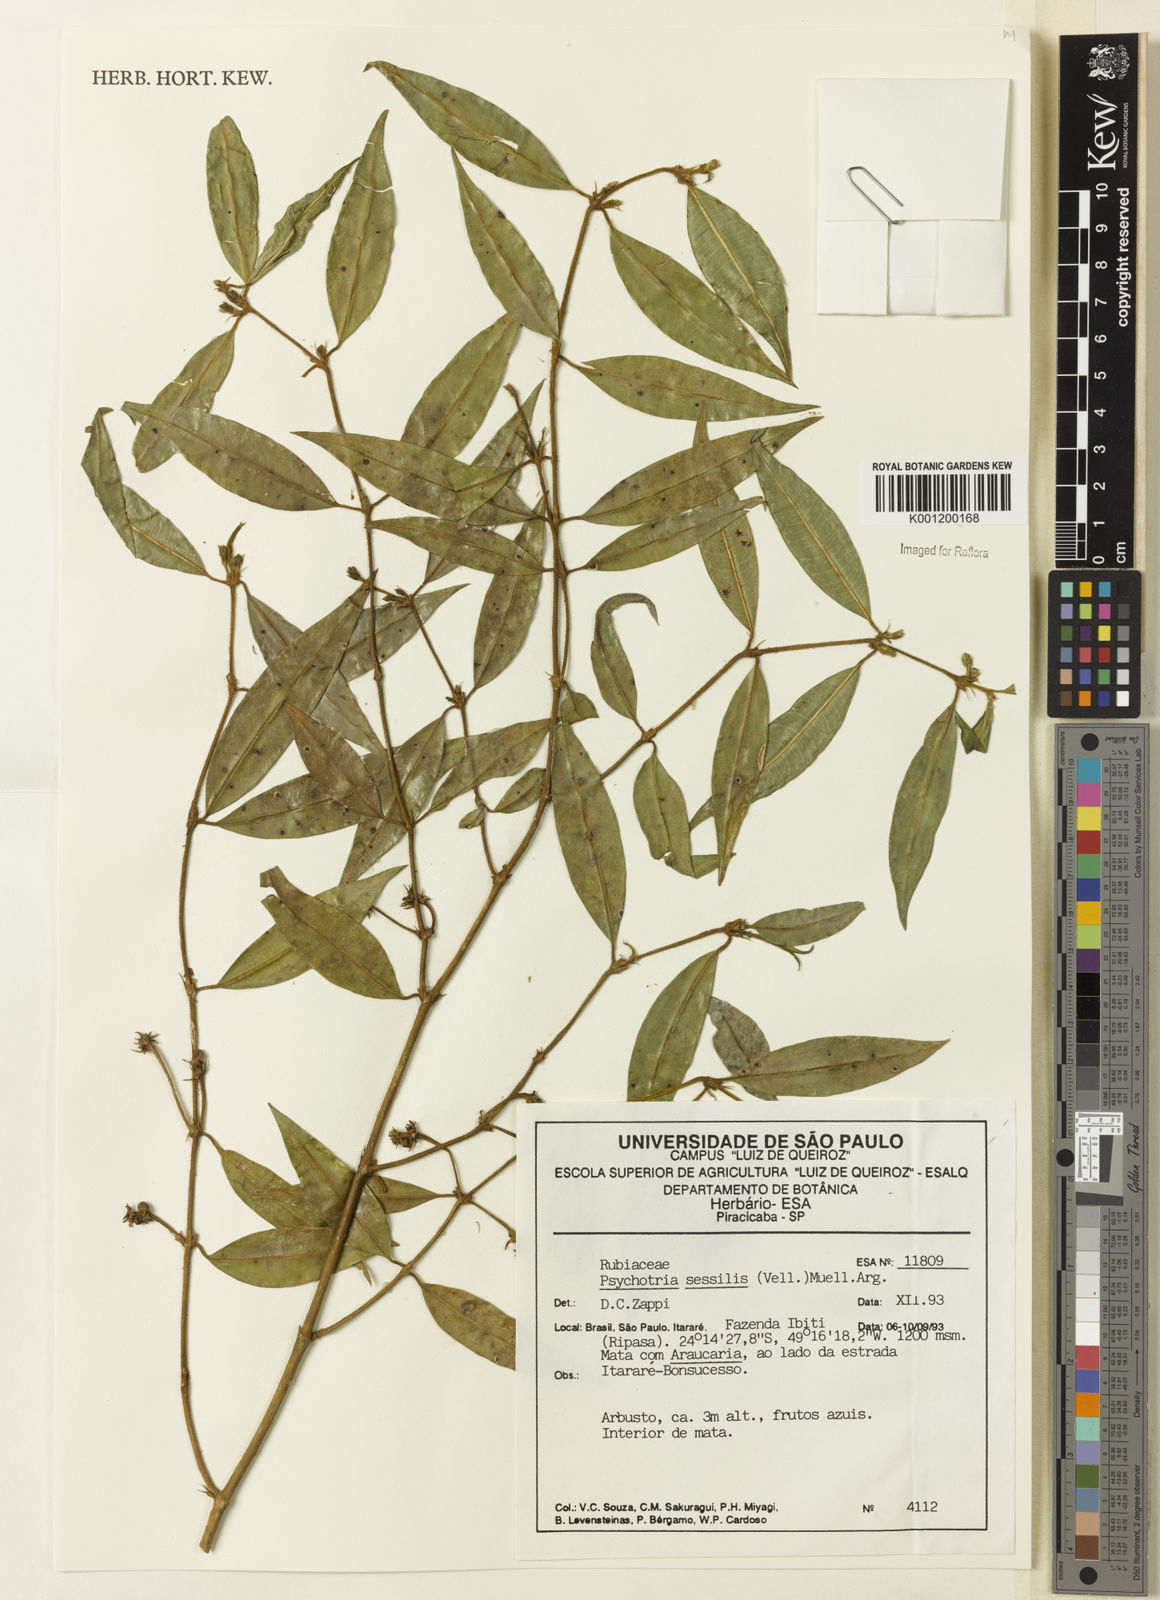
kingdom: Plantae
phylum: Tracheophyta
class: Magnoliopsida
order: Gentianales
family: Rubiaceae
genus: Rudgea
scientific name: Rudgea sessilis
